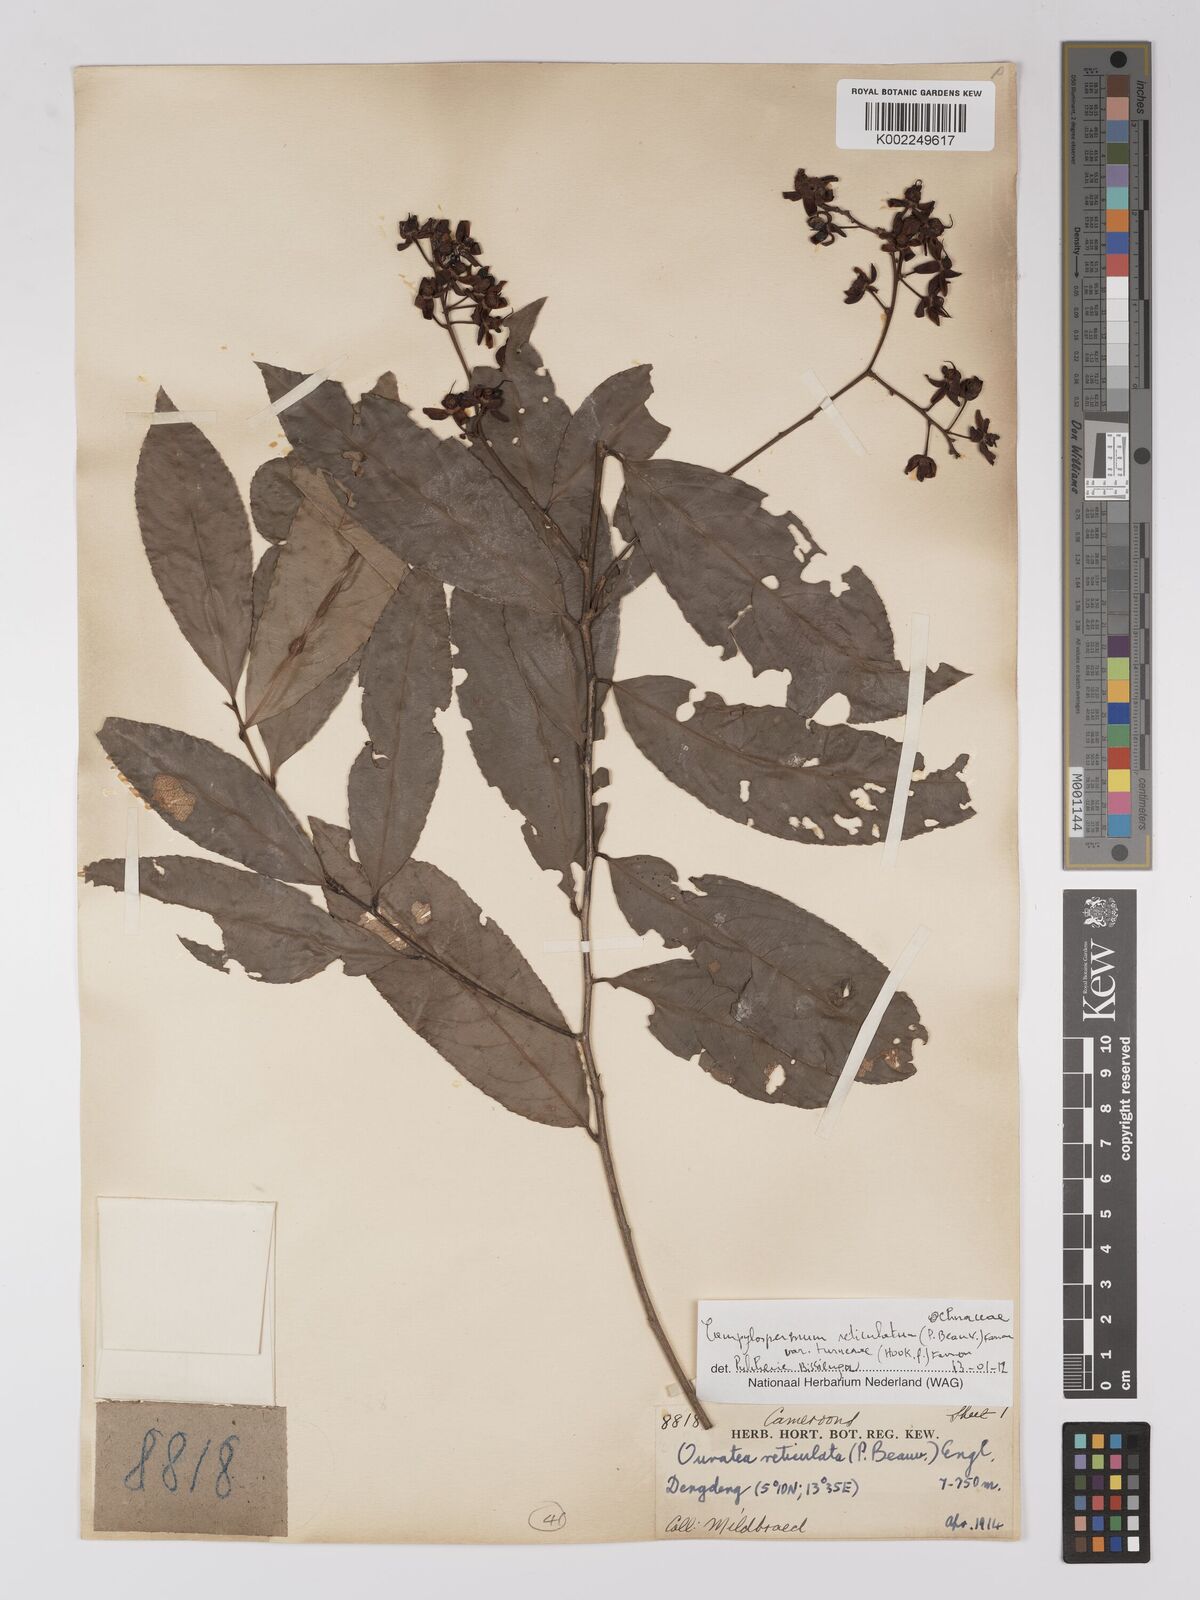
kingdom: Plantae
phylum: Tracheophyta
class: Magnoliopsida
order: Malpighiales
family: Ochnaceae
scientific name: Ochnaceae
